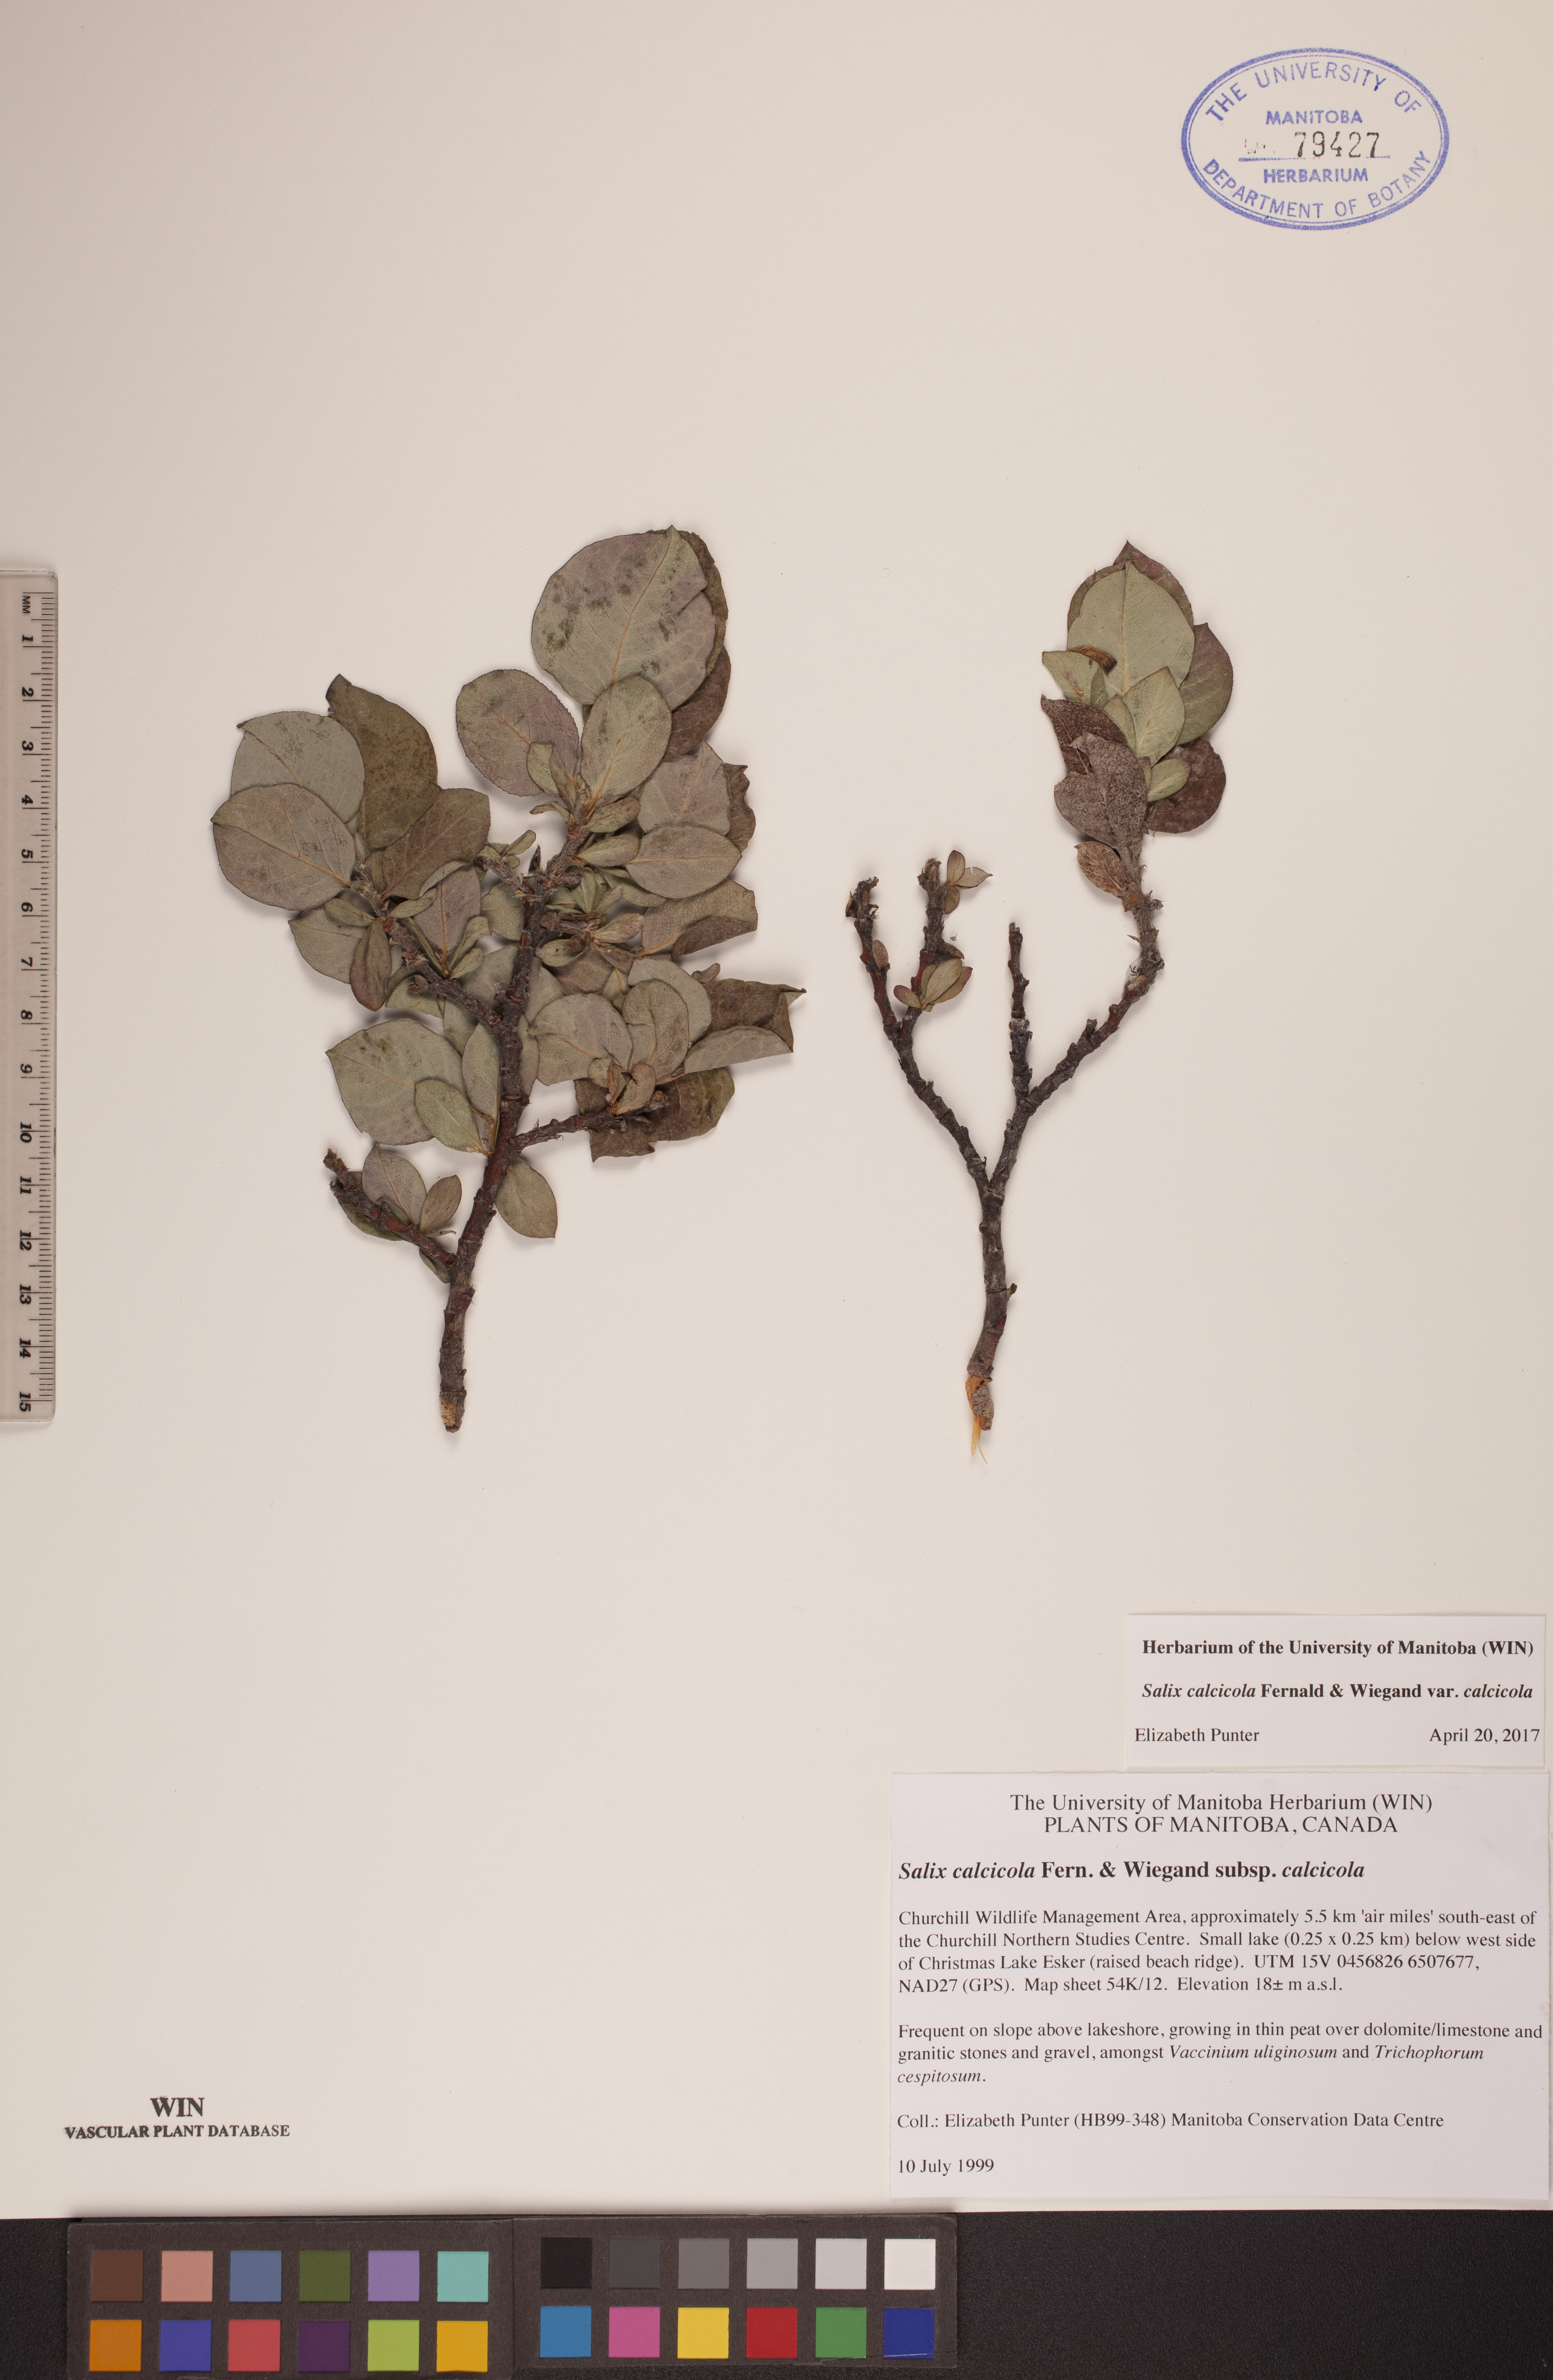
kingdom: Plantae
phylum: Tracheophyta
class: Magnoliopsida
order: Malpighiales
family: Salicaceae
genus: Salix
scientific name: Salix calcicola
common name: Calcareous willow
